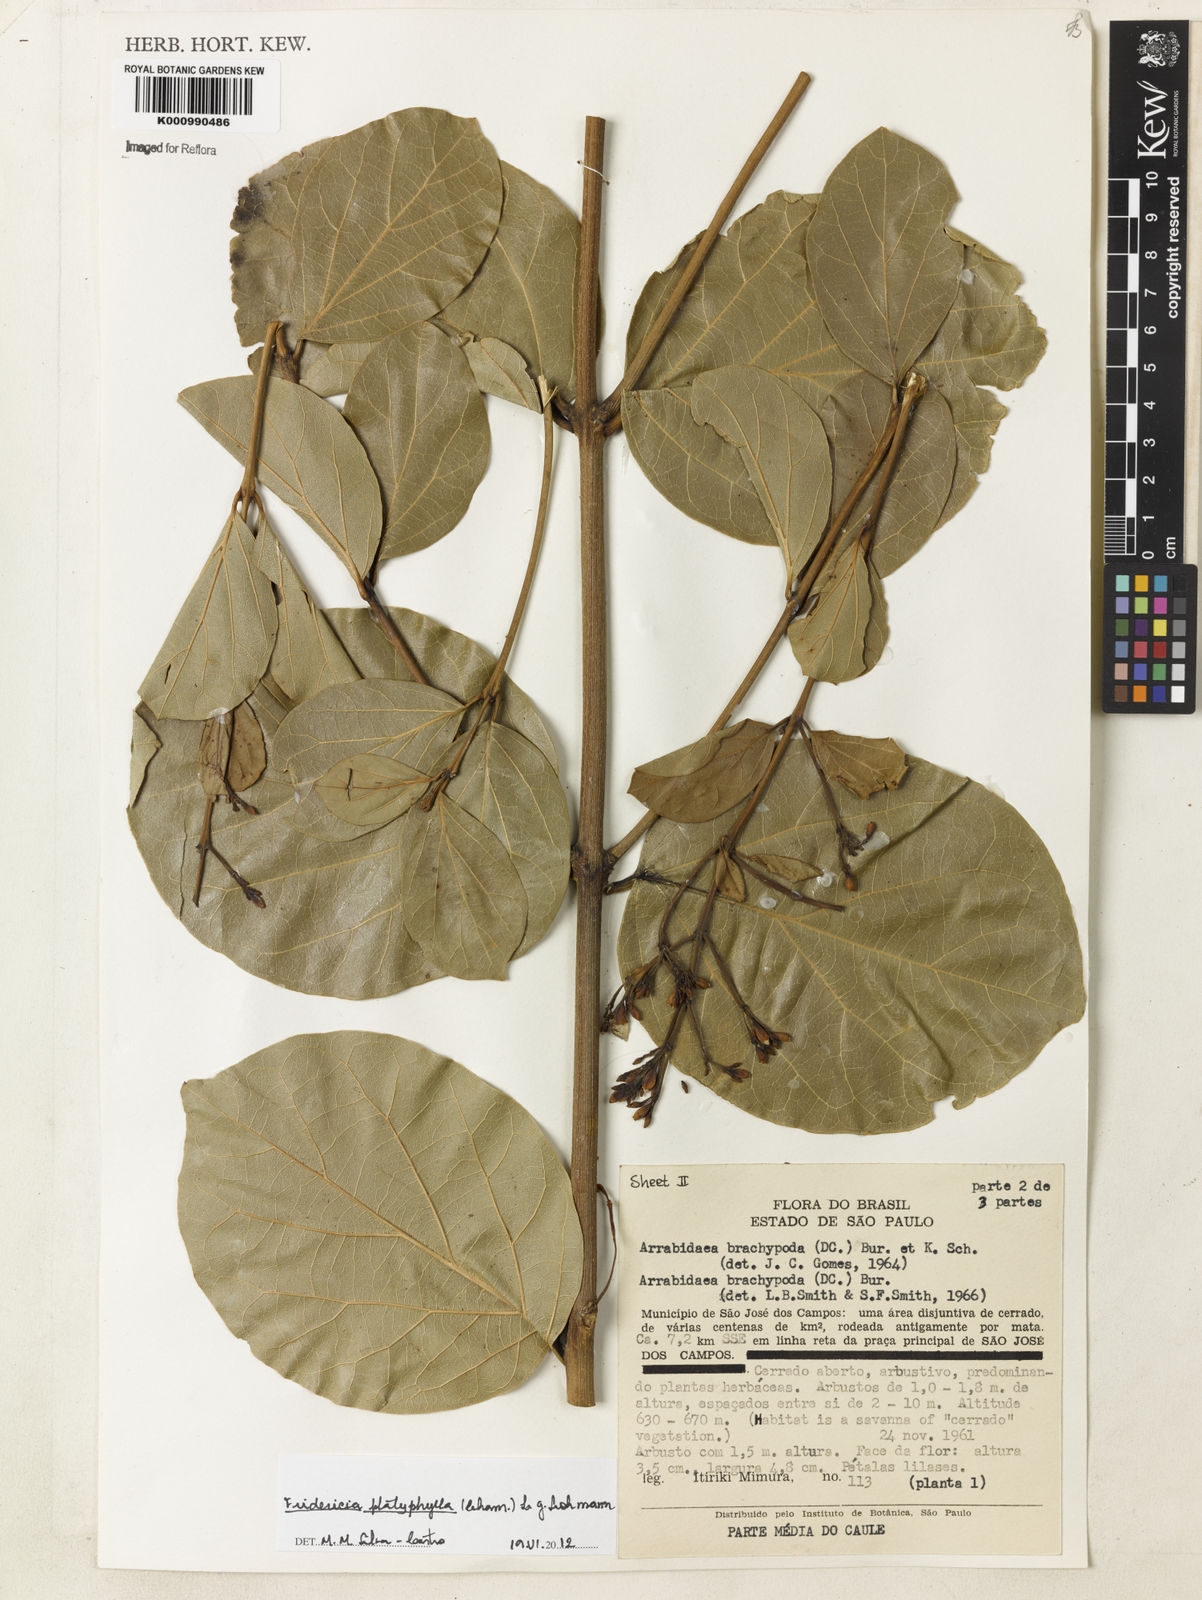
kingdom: Plantae
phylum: Tracheophyta
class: Magnoliopsida
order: Lamiales
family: Bignoniaceae
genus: Fridericia
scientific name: Fridericia platyphylla
